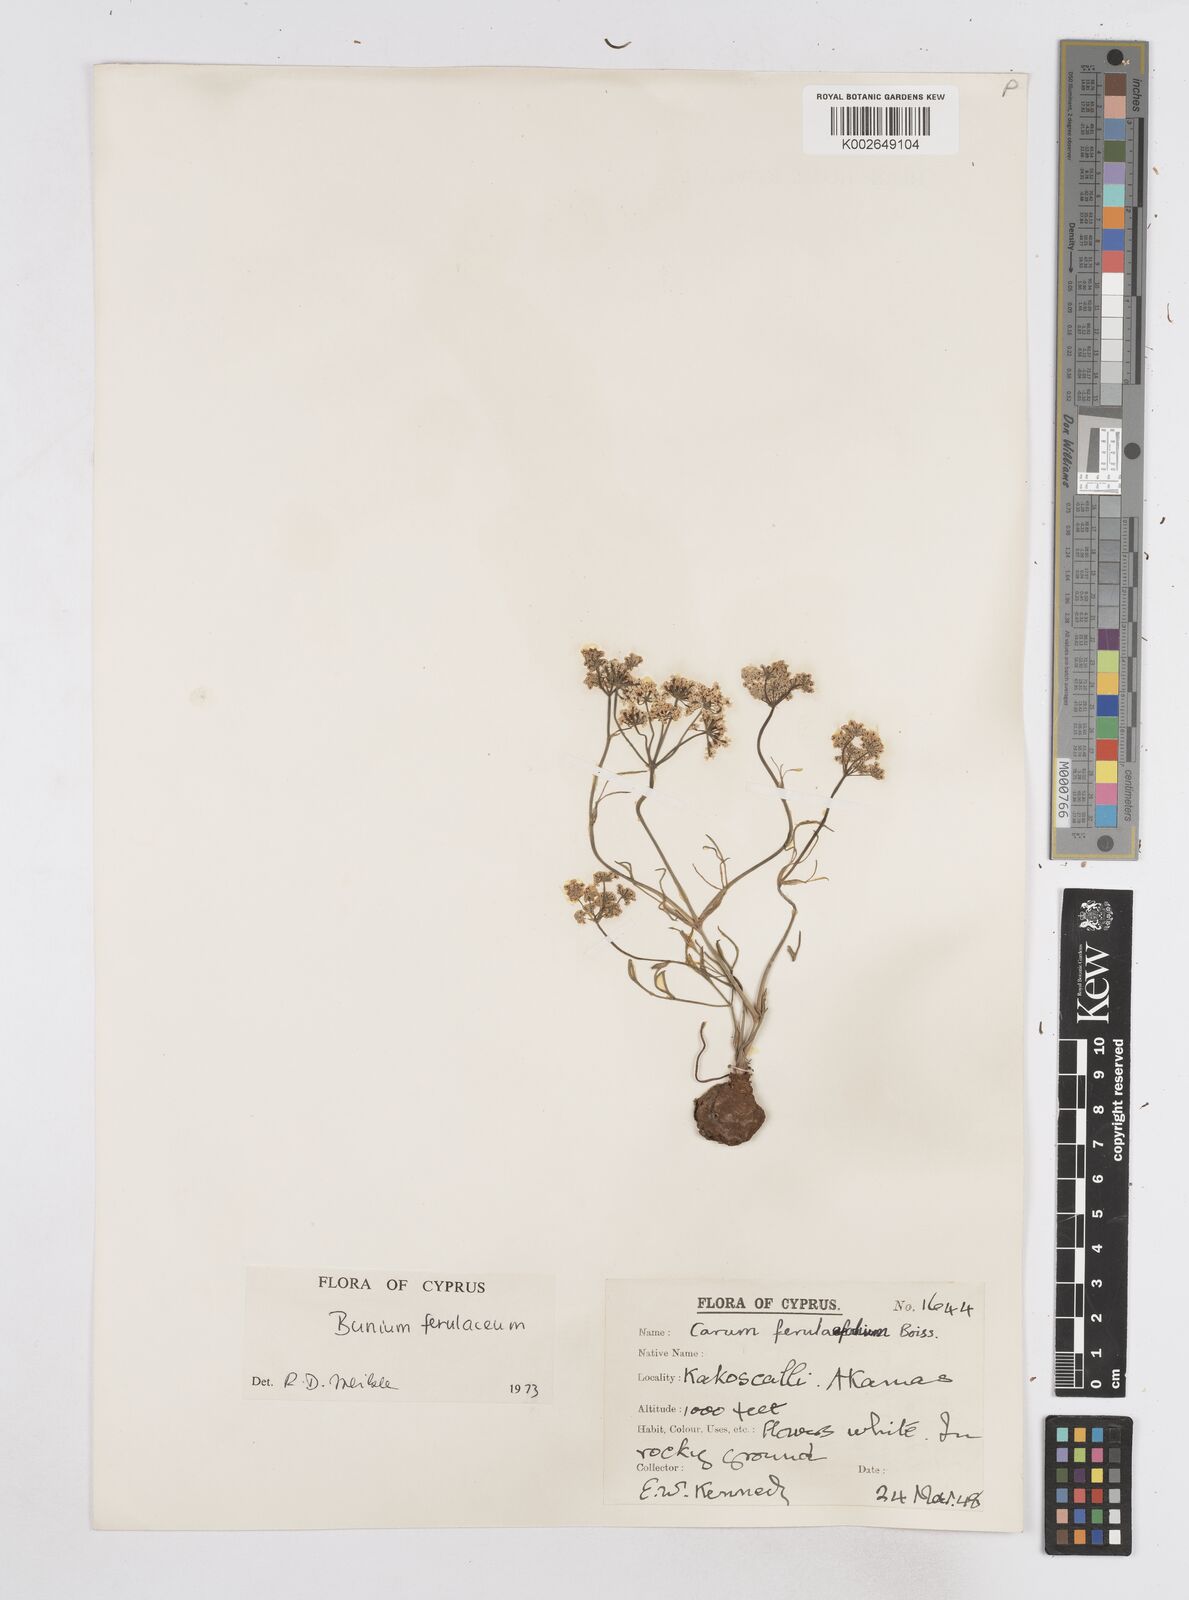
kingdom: Plantae
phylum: Tracheophyta
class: Magnoliopsida
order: Apiales
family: Apiaceae
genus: Bunium
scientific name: Bunium ferulaceum
